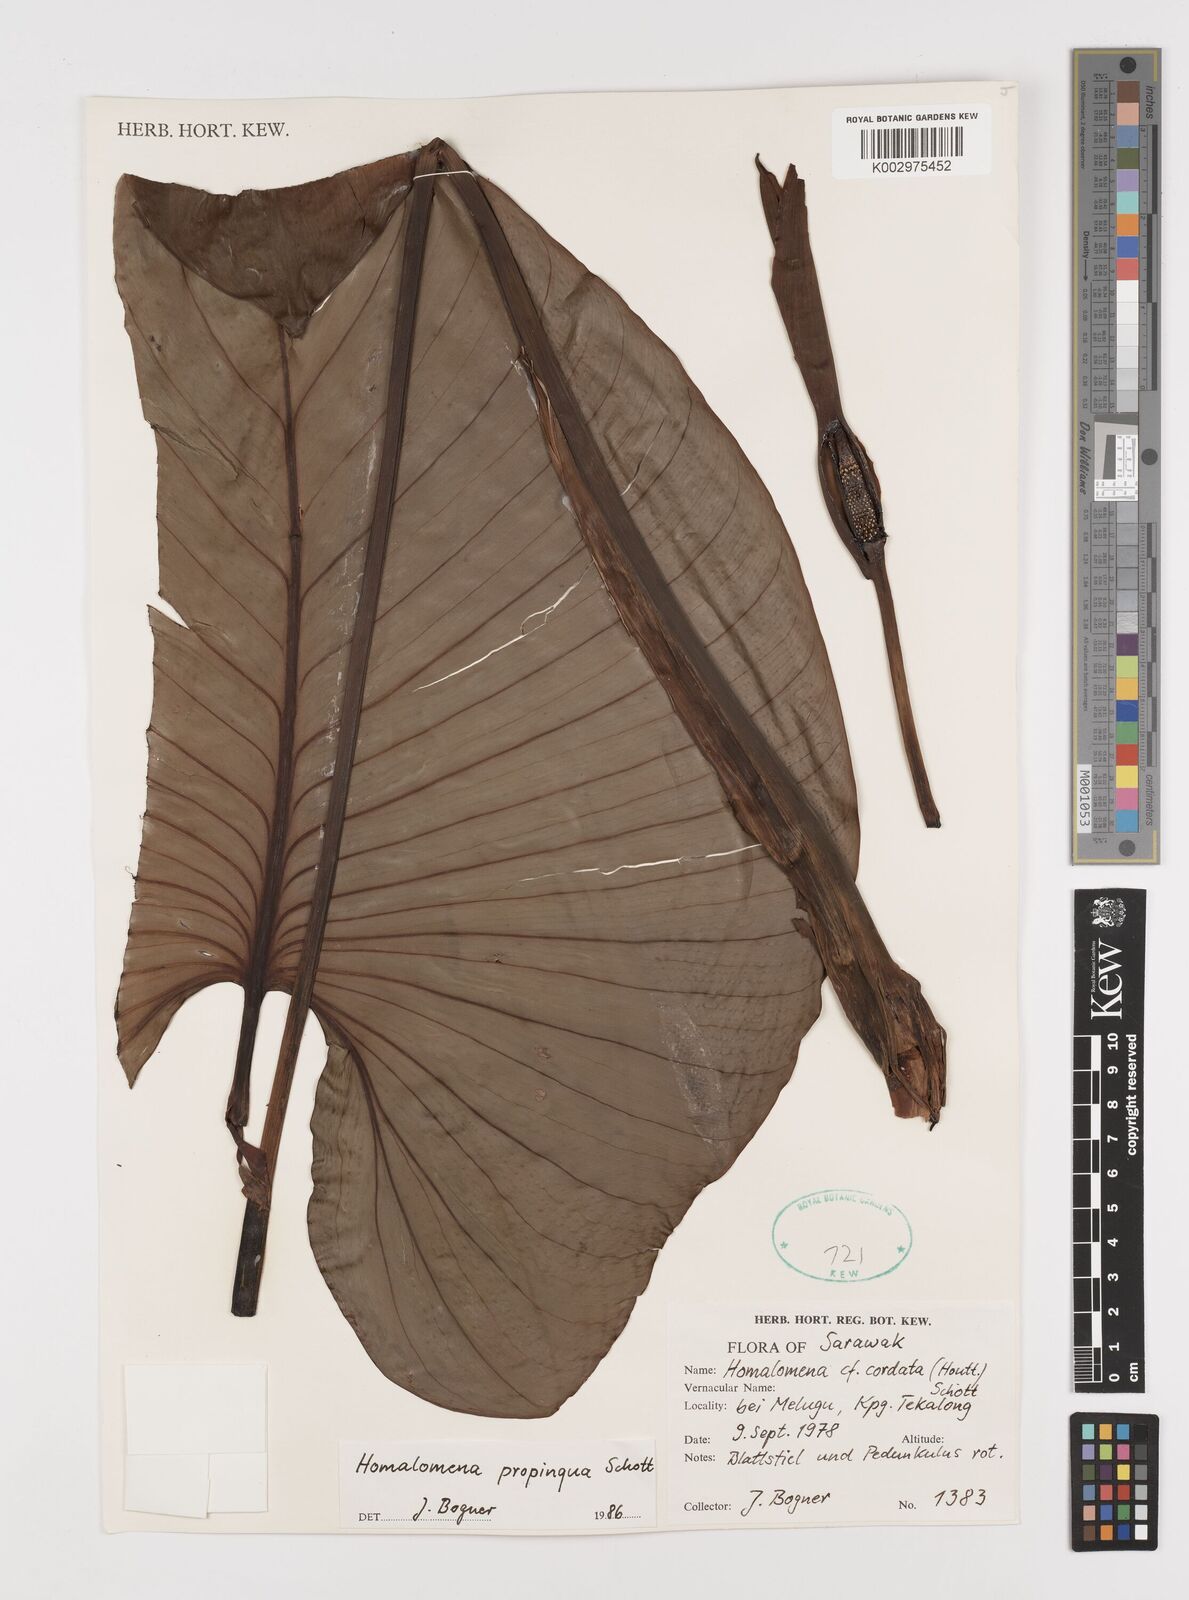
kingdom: Plantae
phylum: Tracheophyta
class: Liliopsida
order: Alismatales
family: Araceae
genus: Homalomena
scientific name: Homalomena humilis
